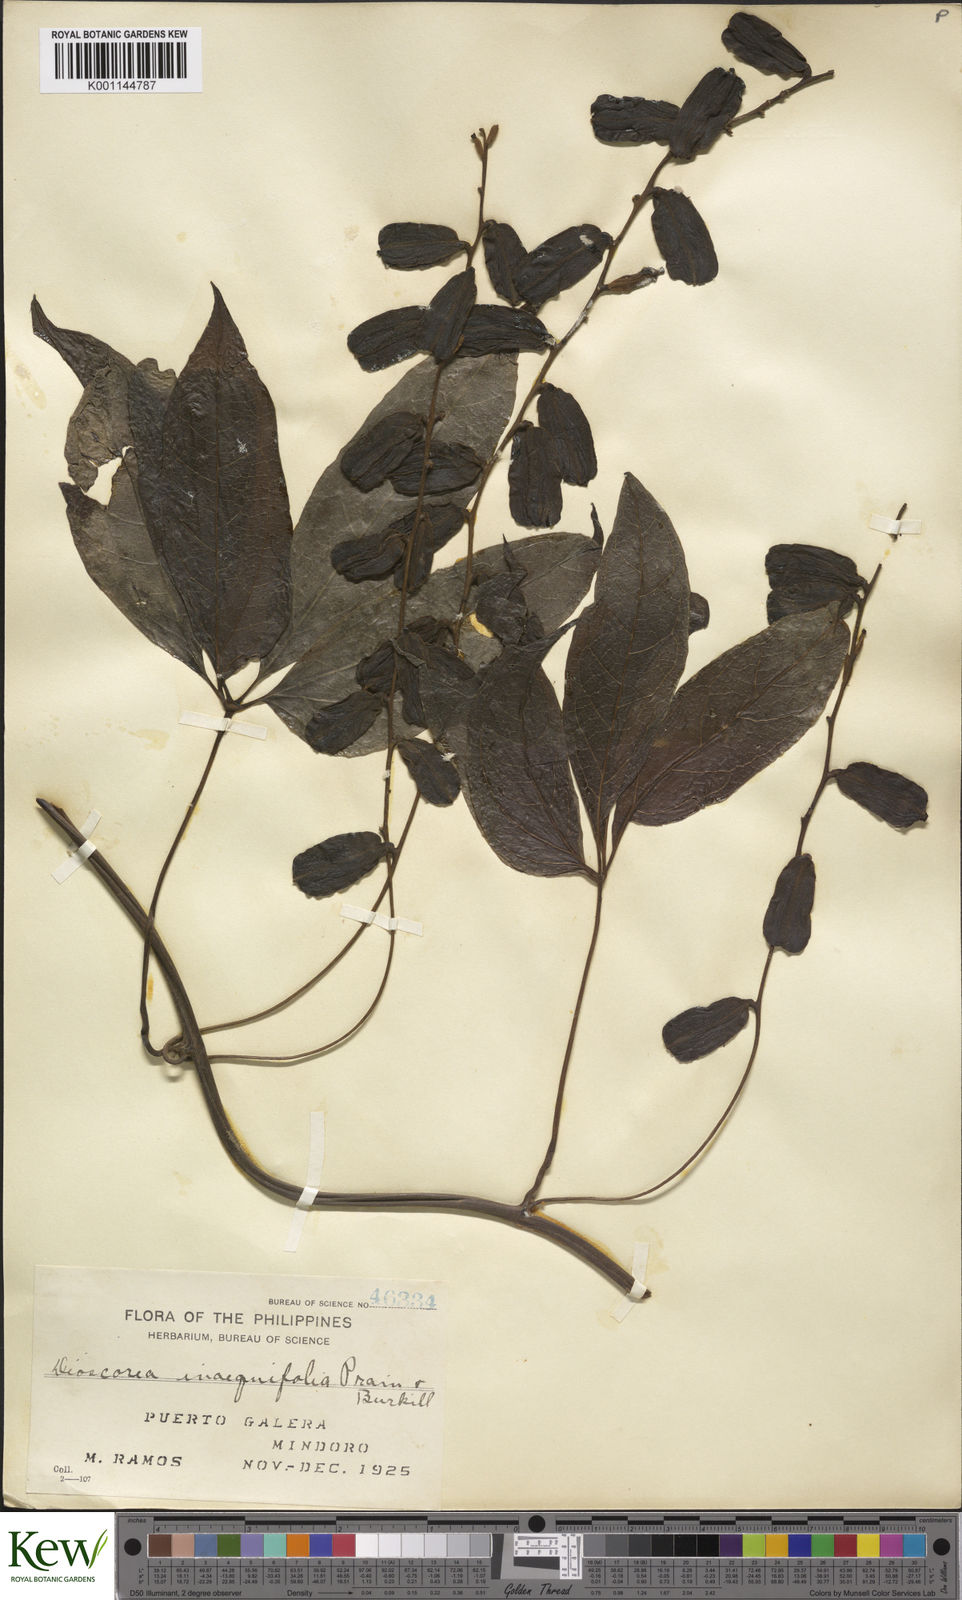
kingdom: Plantae
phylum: Tracheophyta
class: Liliopsida
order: Dioscoreales
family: Dioscoreaceae
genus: Dioscorea
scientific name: Dioscorea cumingii
